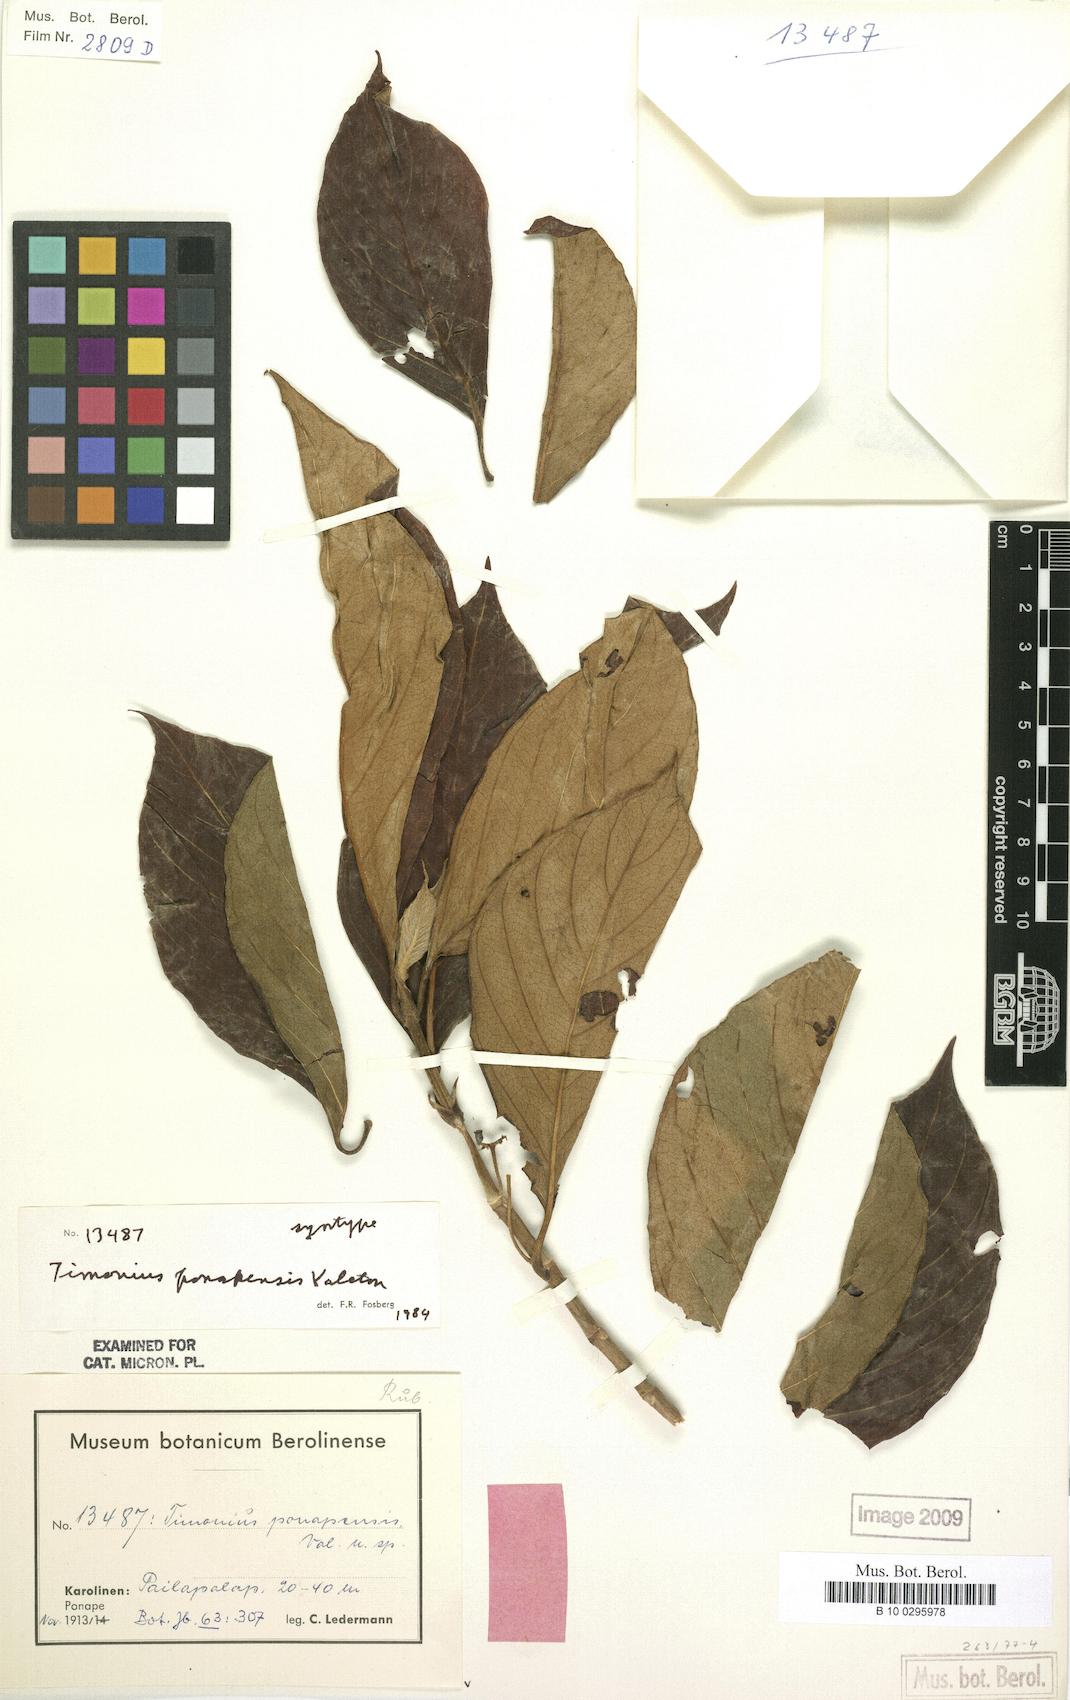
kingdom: Plantae
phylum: Tracheophyta
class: Magnoliopsida
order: Gentianales
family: Rubiaceae
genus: Timonius
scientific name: Timonius ponapensis
